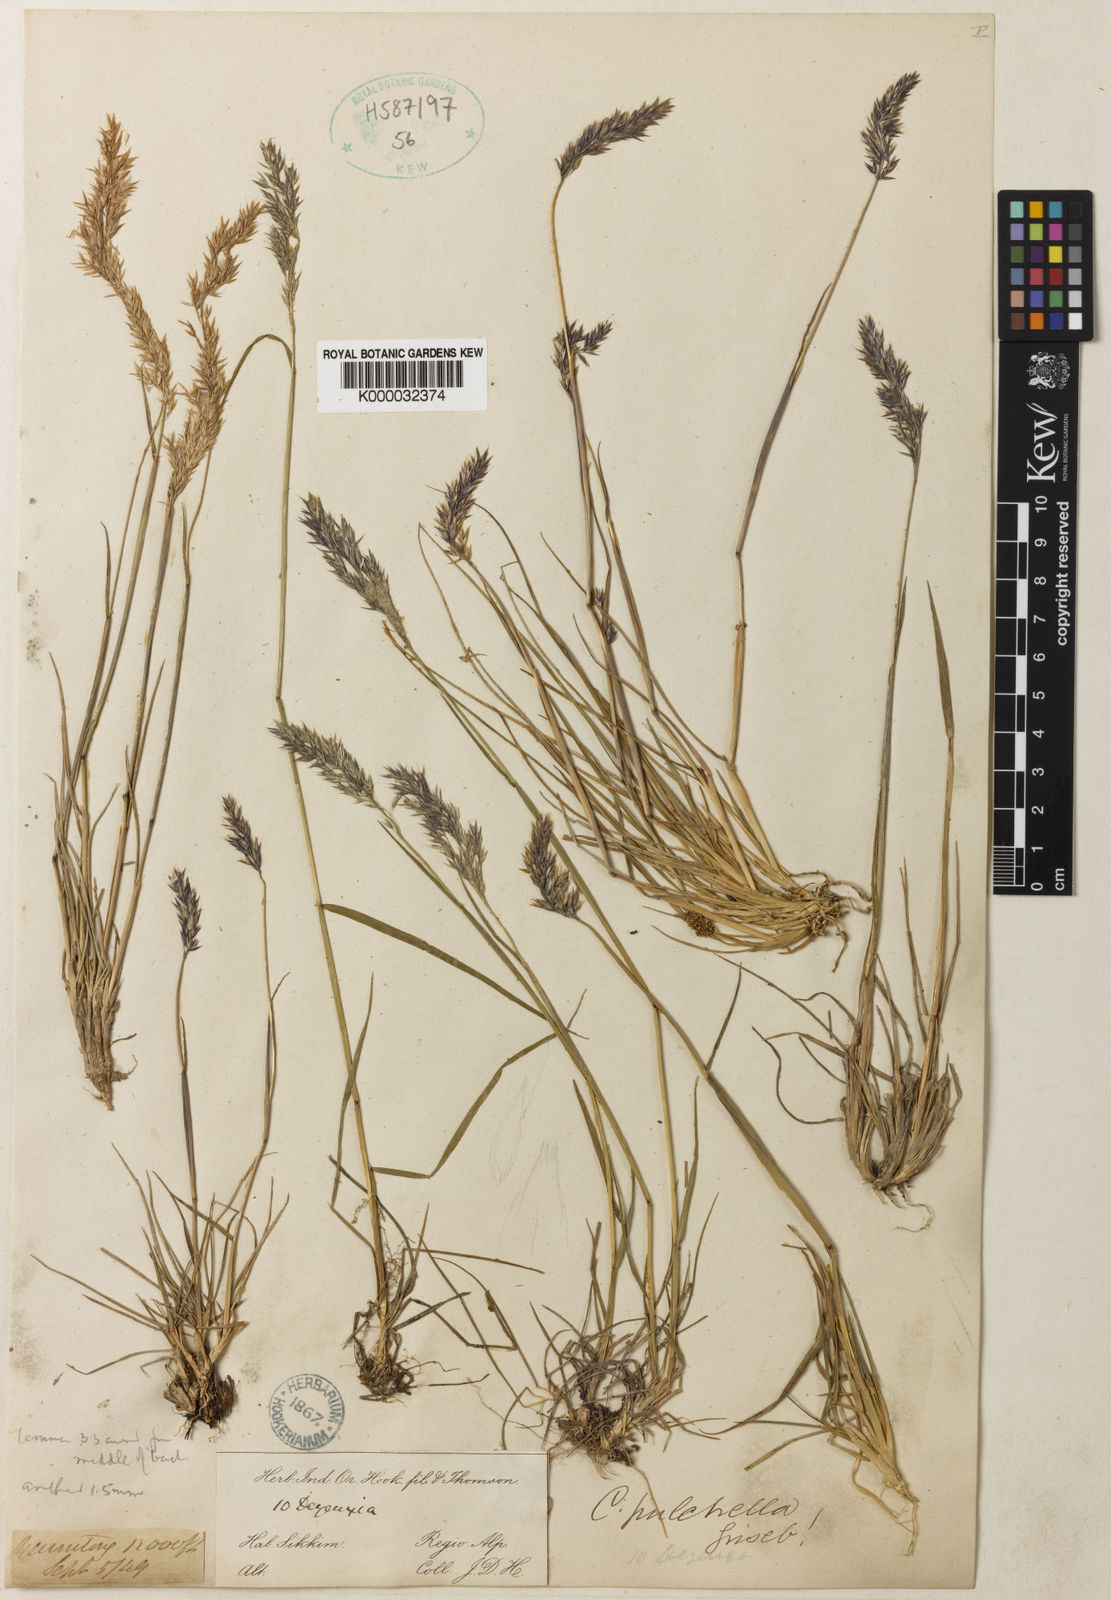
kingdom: Plantae
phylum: Tracheophyta
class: Liliopsida
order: Poales
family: Poaceae
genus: Calamagrostis
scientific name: Calamagrostis lahulensis
